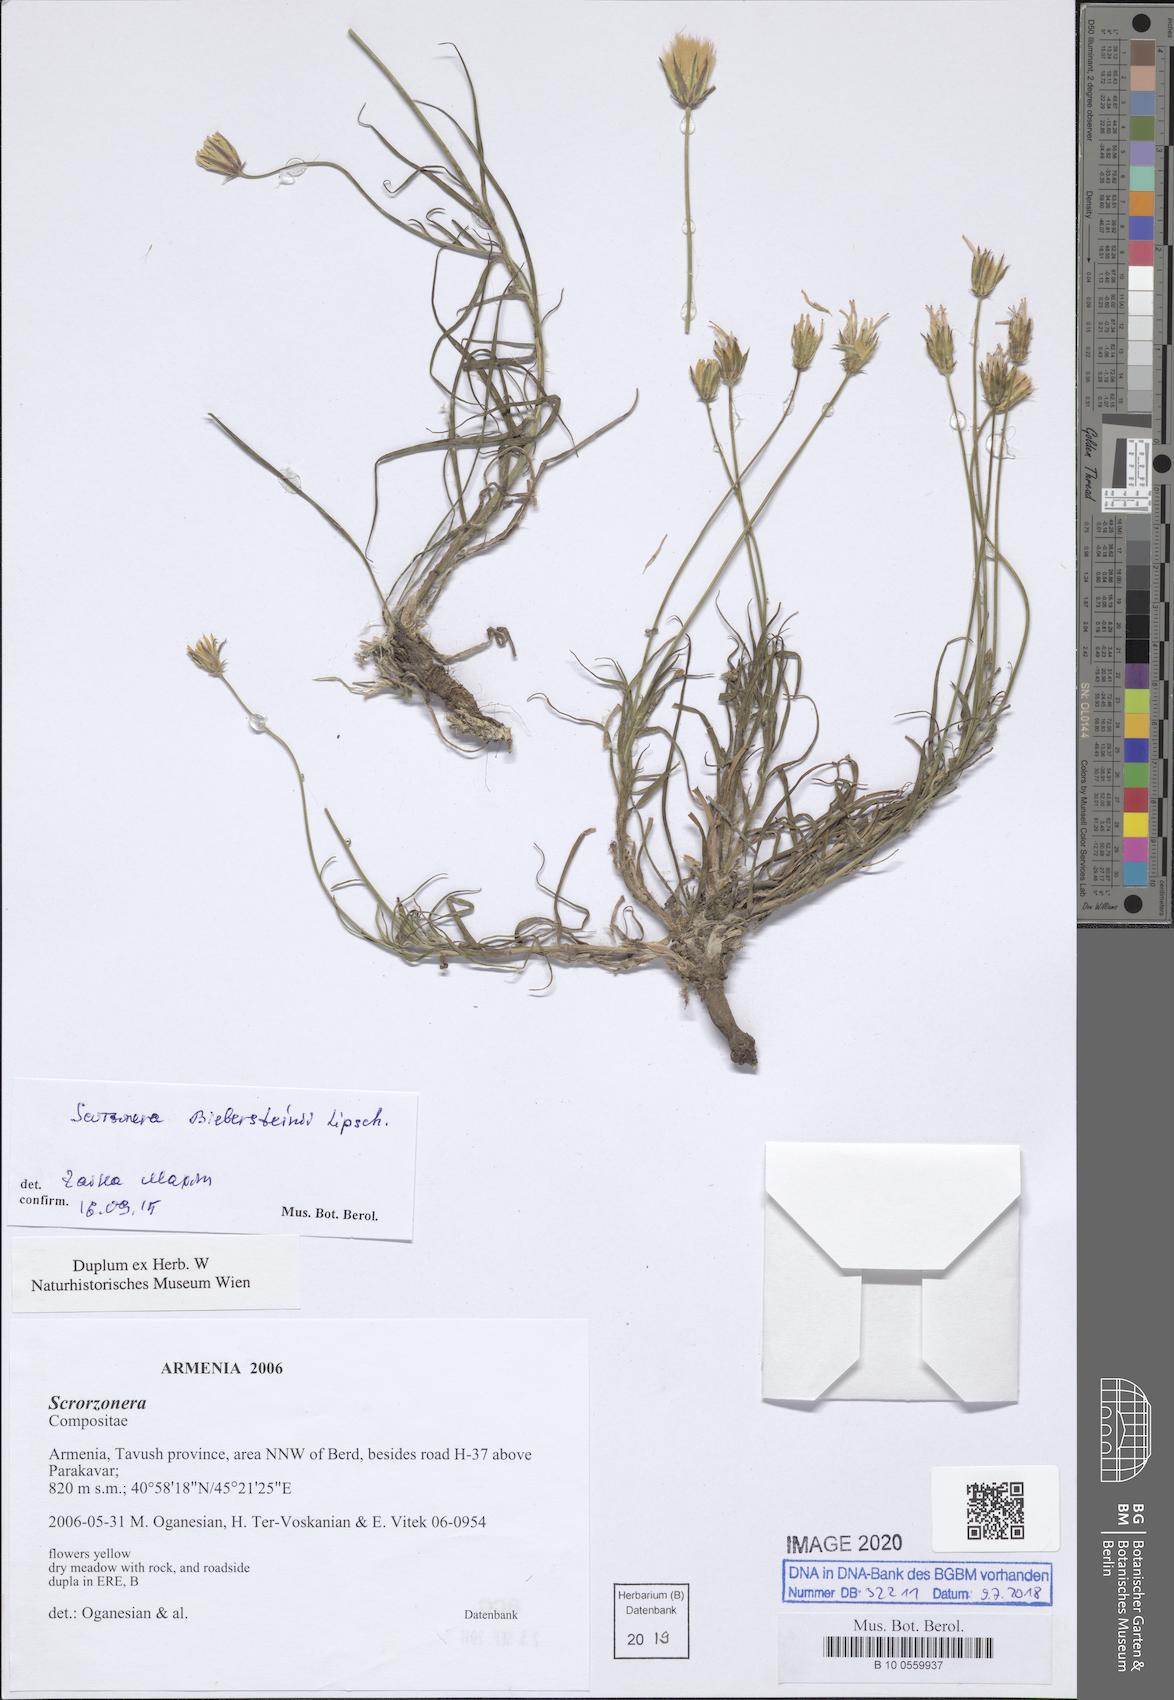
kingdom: Plantae
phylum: Tracheophyta
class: Magnoliopsida
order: Asterales
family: Asteraceae
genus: Gelasia
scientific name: Gelasia biebersteinii
